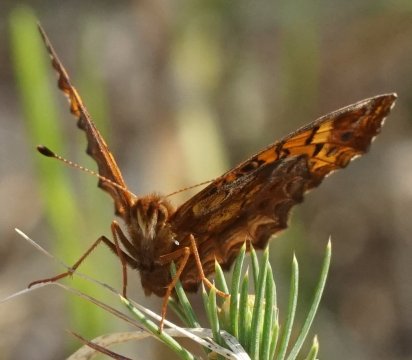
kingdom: Animalia
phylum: Arthropoda
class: Insecta
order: Lepidoptera
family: Nymphalidae
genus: Clossiana
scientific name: Clossiana toddi
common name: Meadow Fritillary
